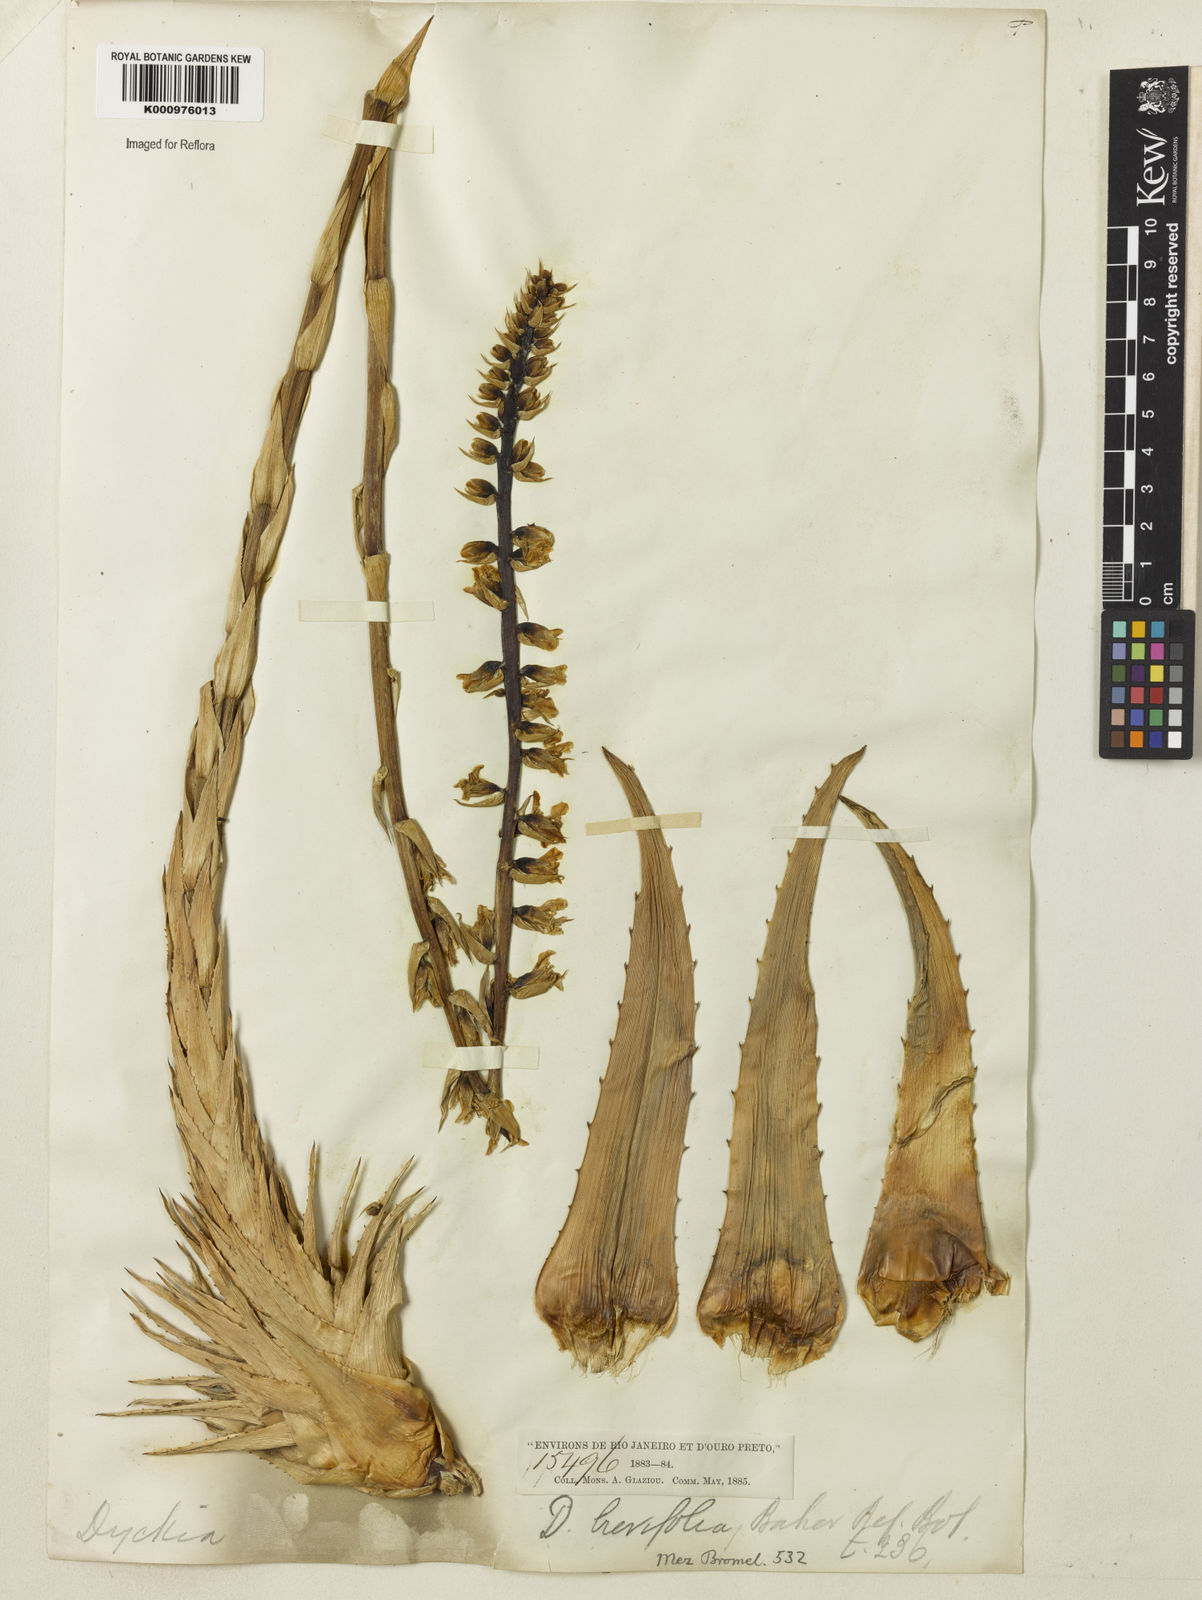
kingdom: Plantae
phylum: Tracheophyta
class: Liliopsida
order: Poales
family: Bromeliaceae
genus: Dyckia
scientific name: Dyckia brevifolia
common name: Sawblade
